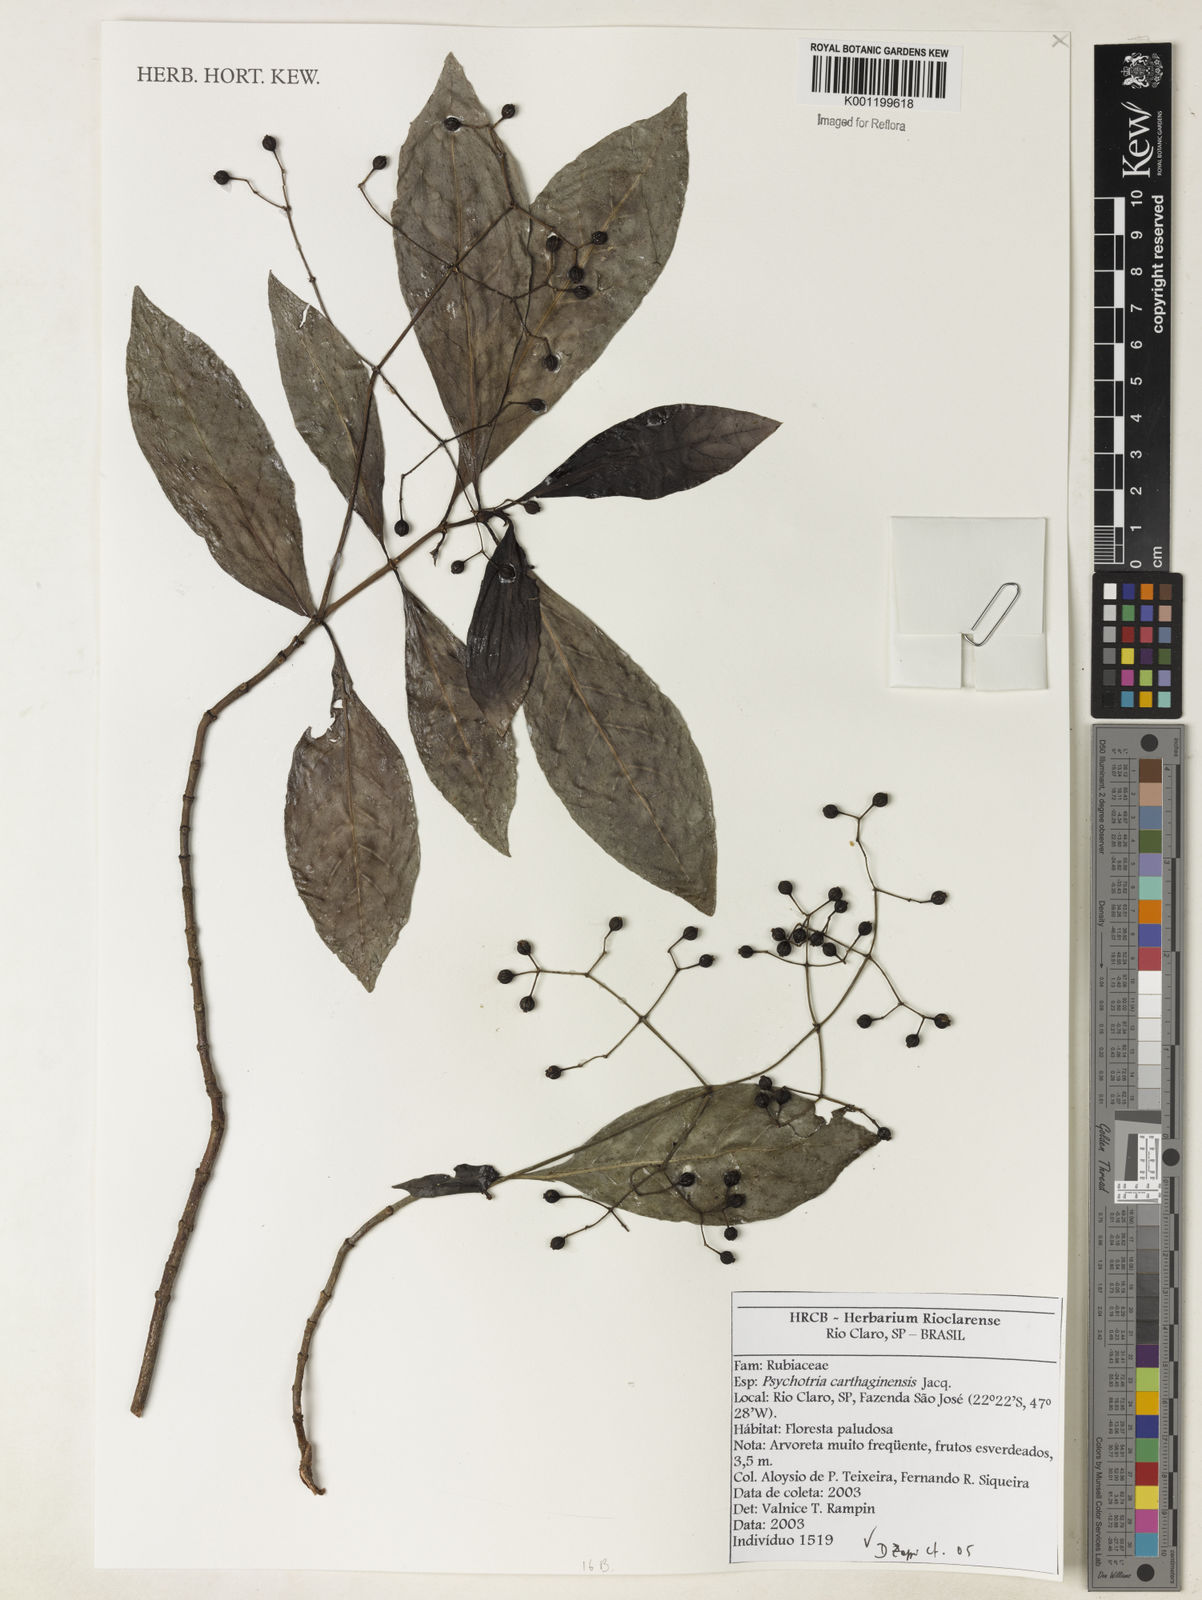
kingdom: Plantae
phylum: Tracheophyta
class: Magnoliopsida
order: Gentianales
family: Rubiaceae
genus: Psychotria
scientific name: Psychotria carthagenensis
